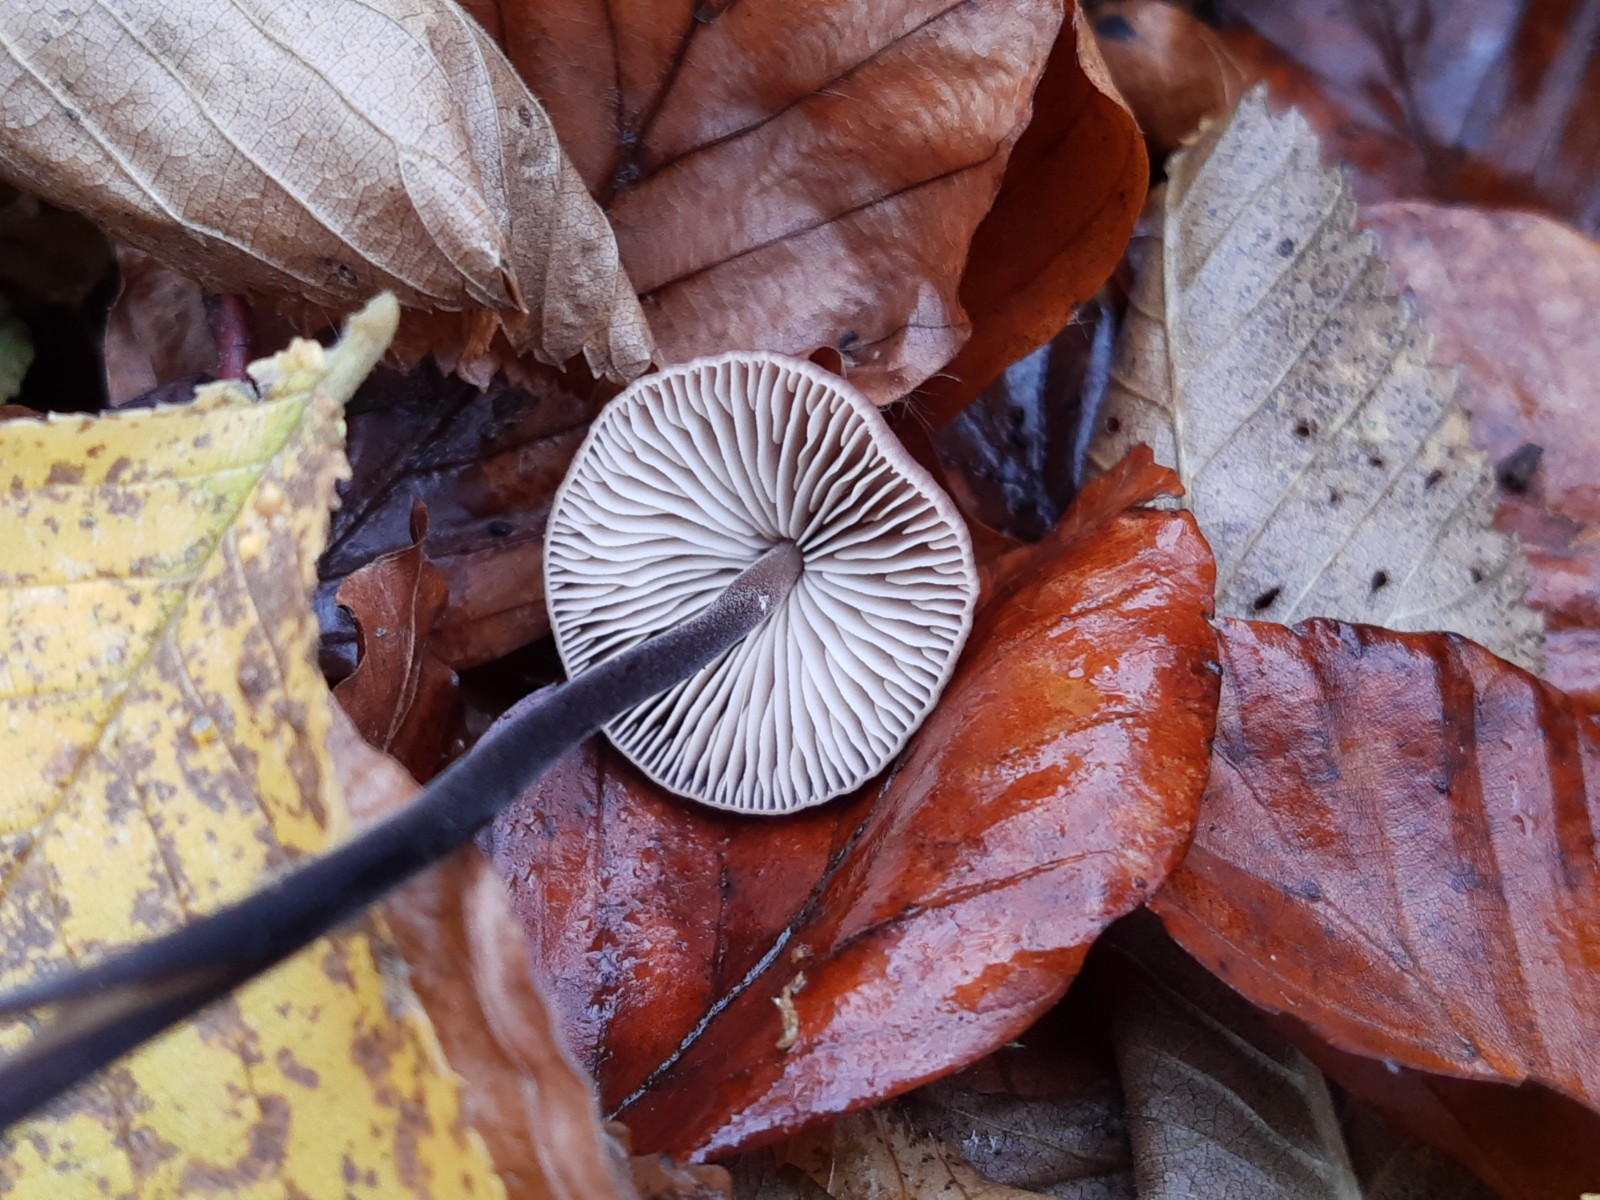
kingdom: Fungi
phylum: Basidiomycota
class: Agaricomycetes
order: Agaricales
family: Omphalotaceae
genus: Mycetinis
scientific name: Mycetinis alliaceus
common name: stor løghat
